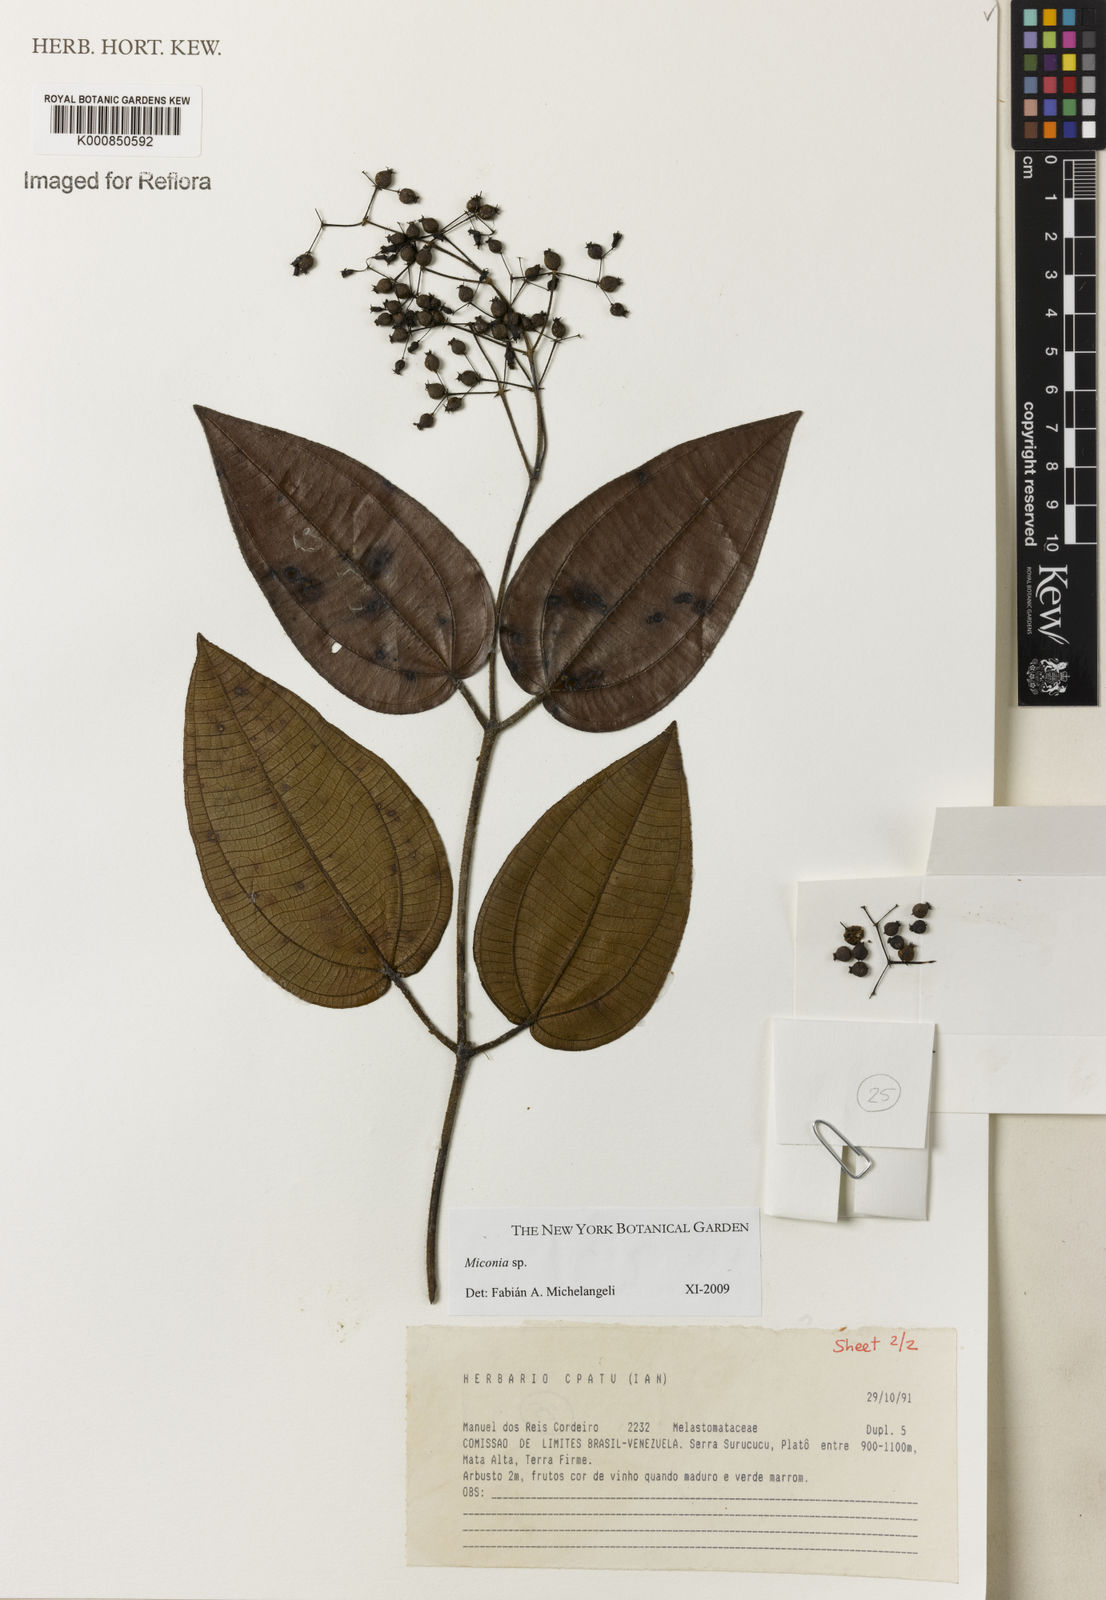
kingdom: Plantae
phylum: Tracheophyta
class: Magnoliopsida
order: Myrtales
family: Melastomataceae
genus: Miconia
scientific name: Miconia
